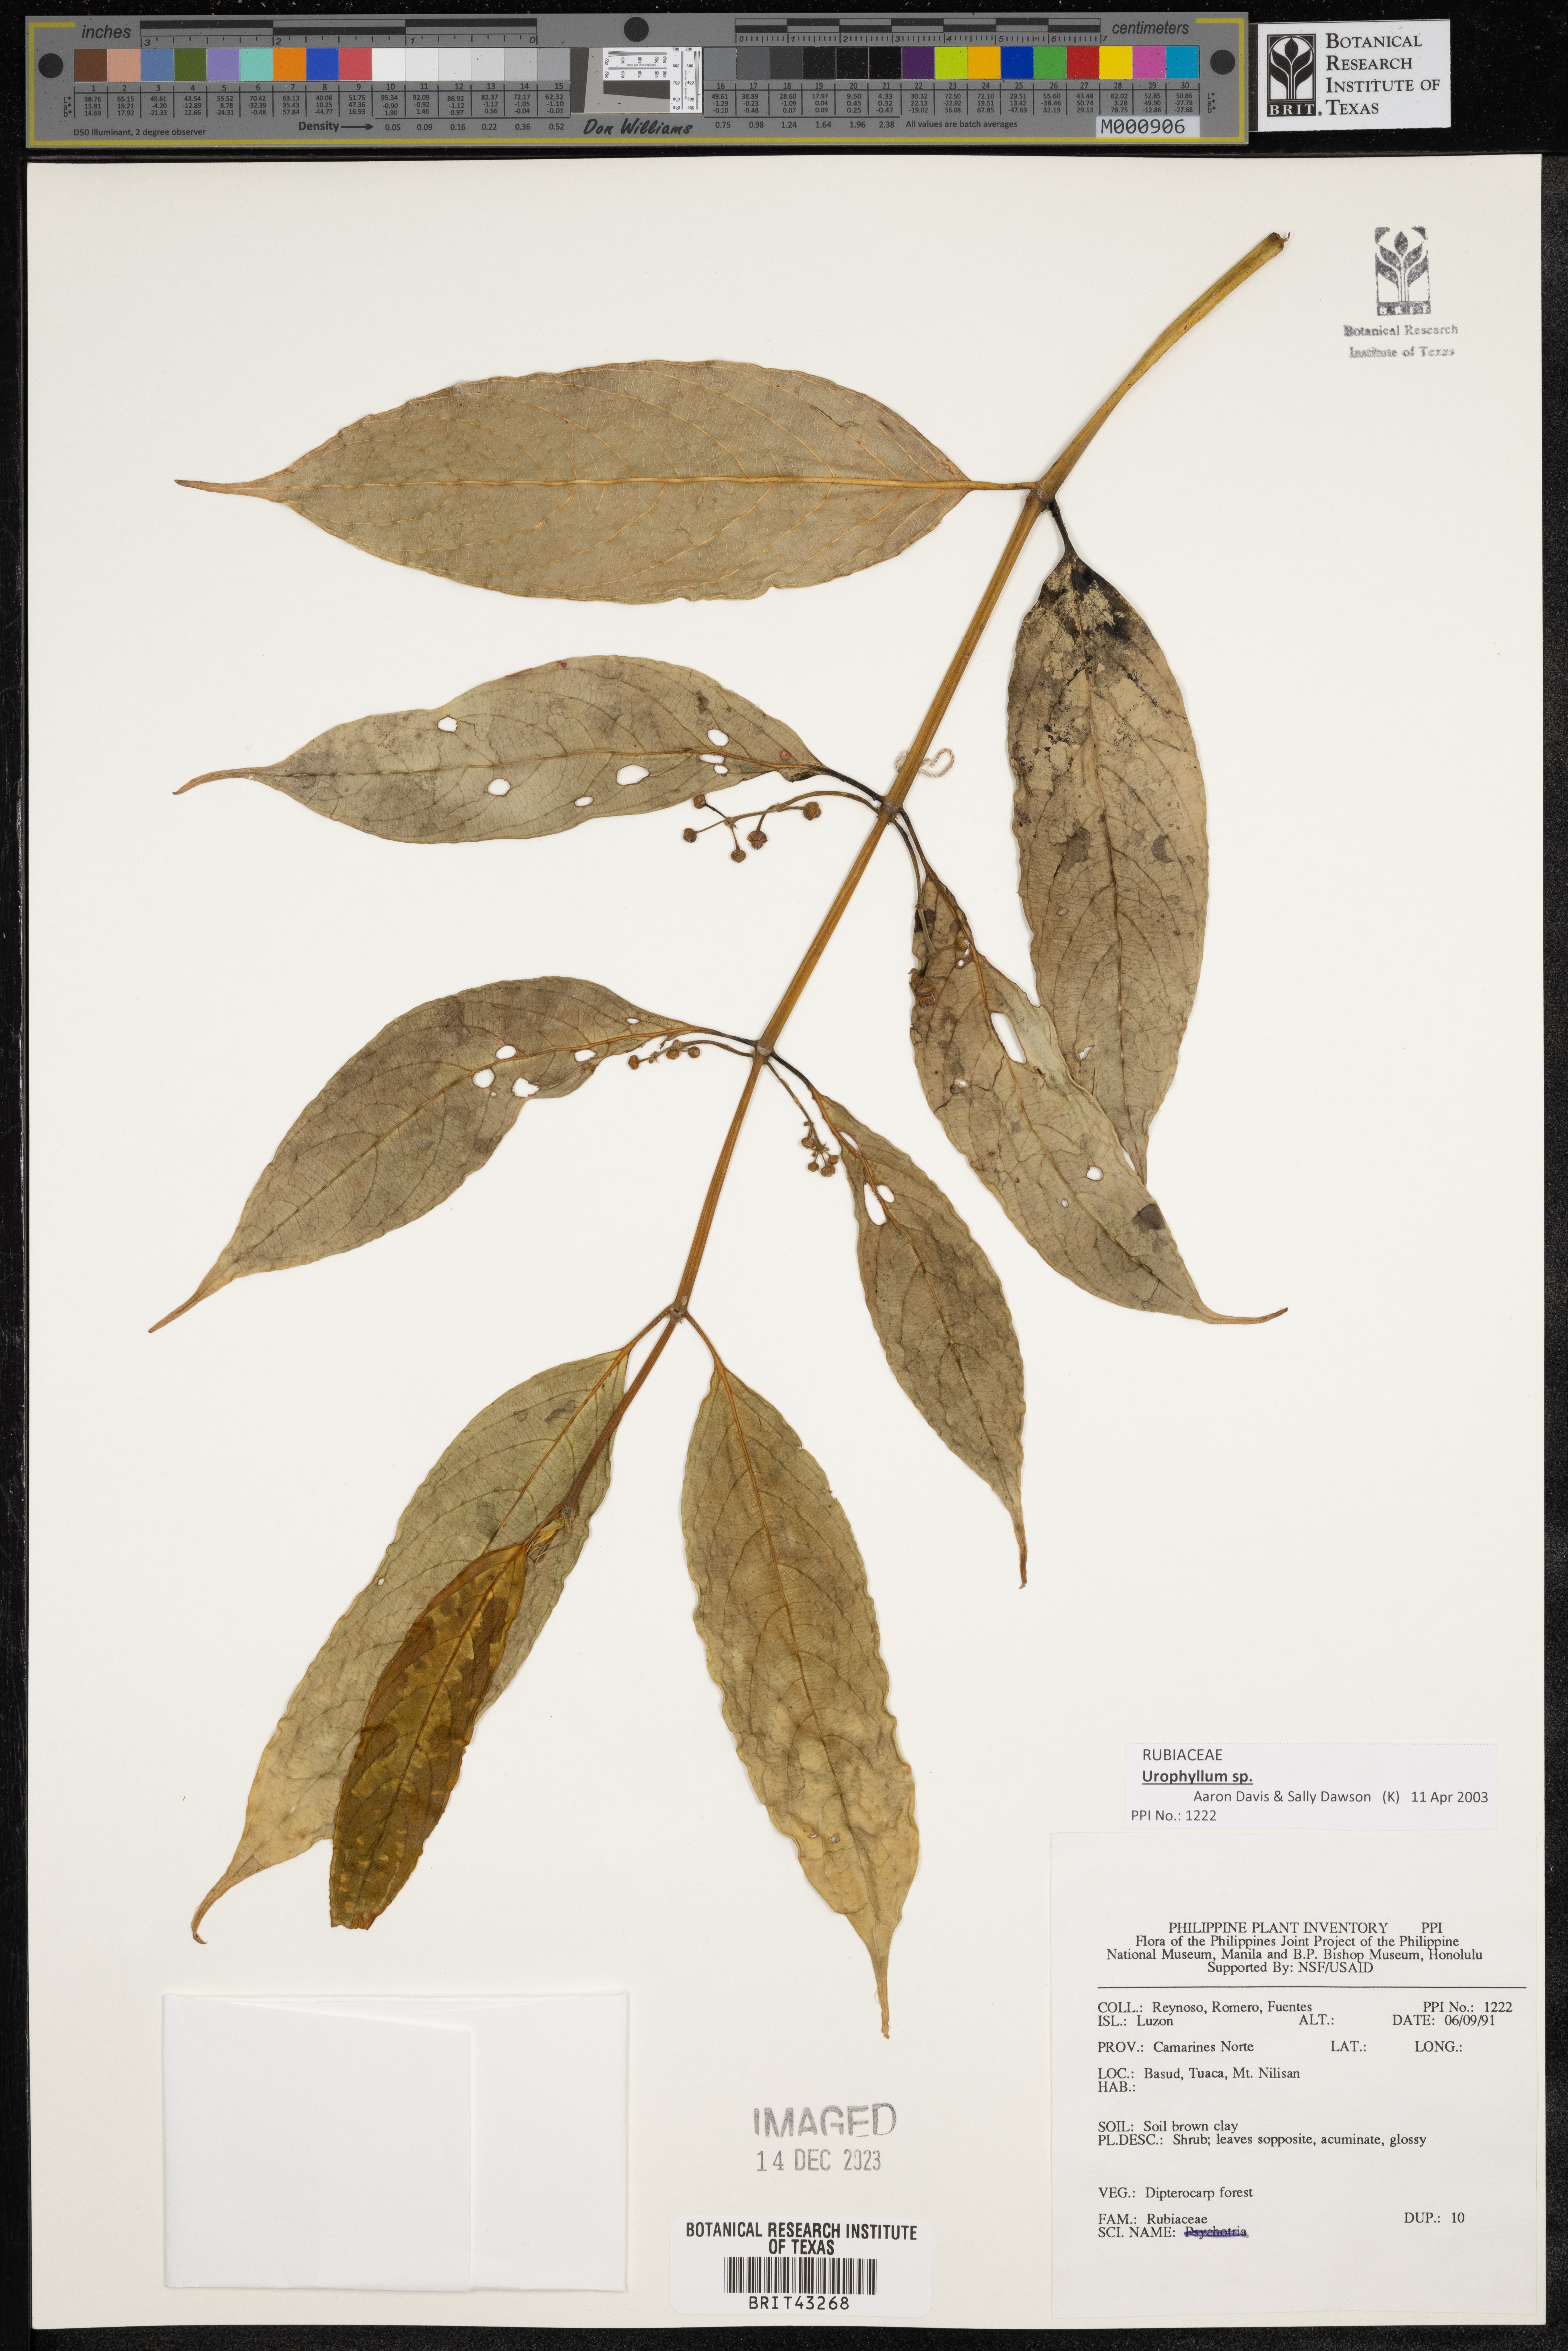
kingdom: Plantae
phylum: Tracheophyta
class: Magnoliopsida
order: Gentianales
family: Rubiaceae
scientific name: Rubiaceae
